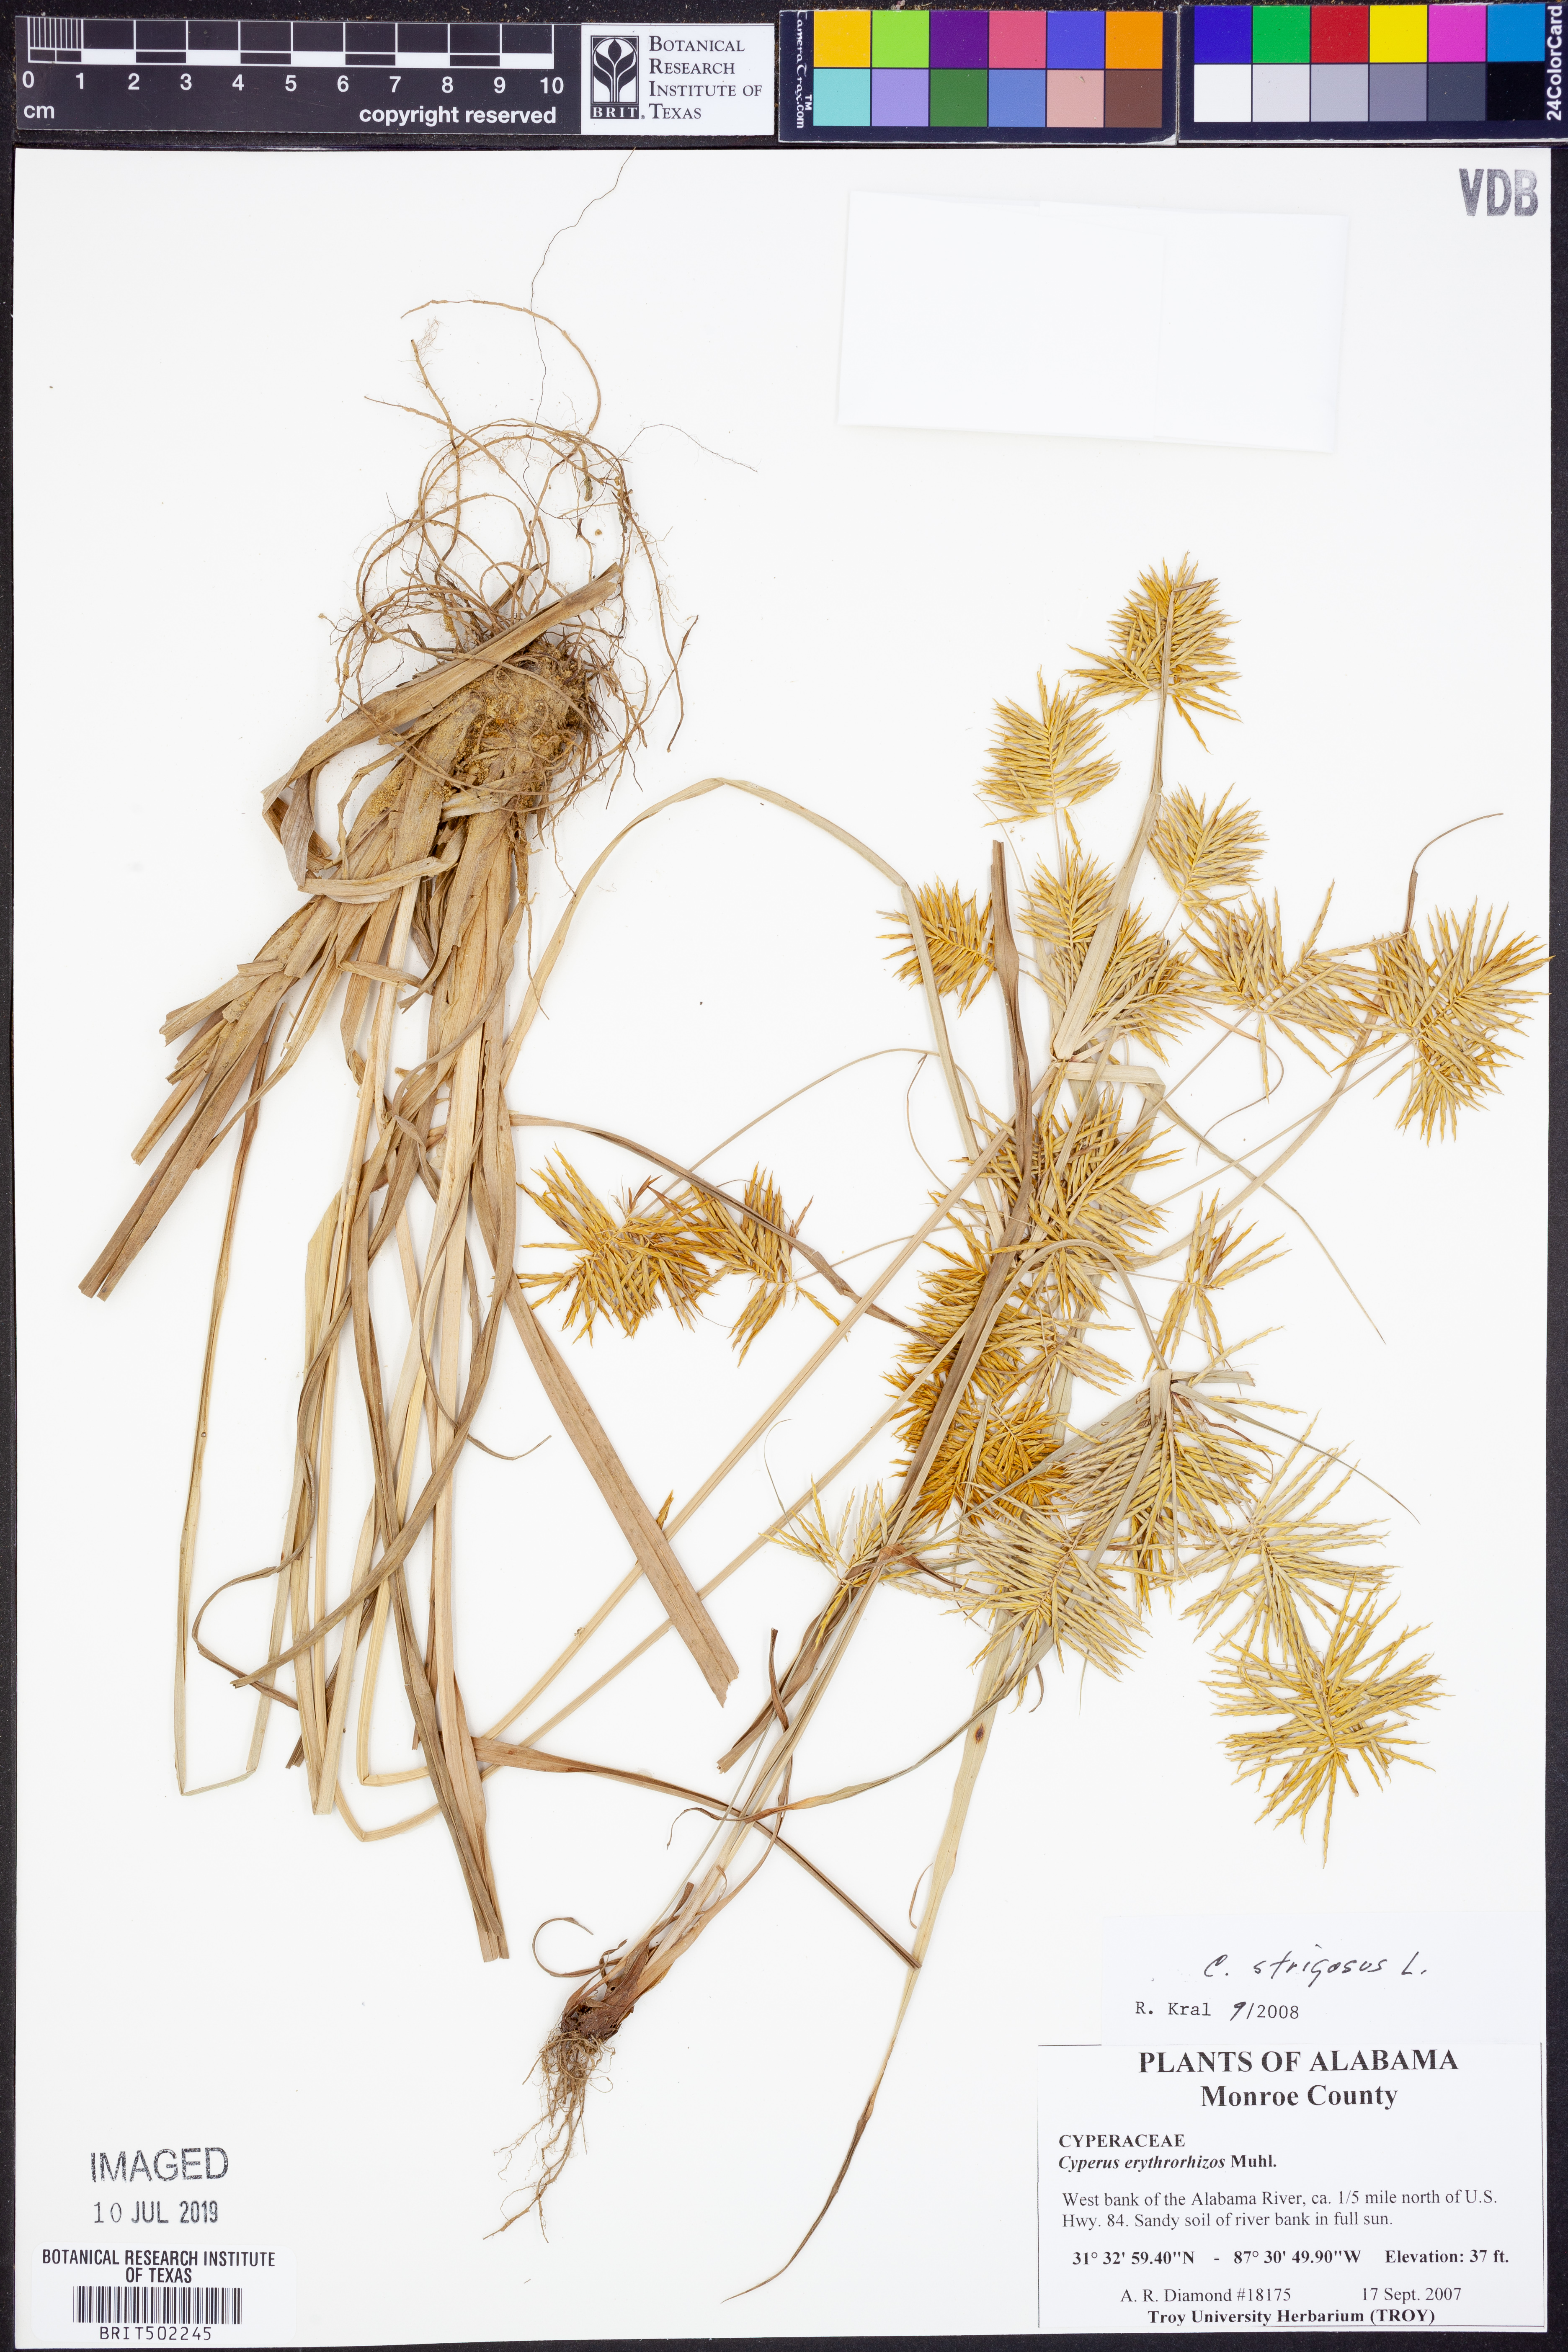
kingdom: Plantae
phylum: Tracheophyta
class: Liliopsida
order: Poales
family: Cyperaceae
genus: Cyperus
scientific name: Cyperus strigosus
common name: False nutsedge
